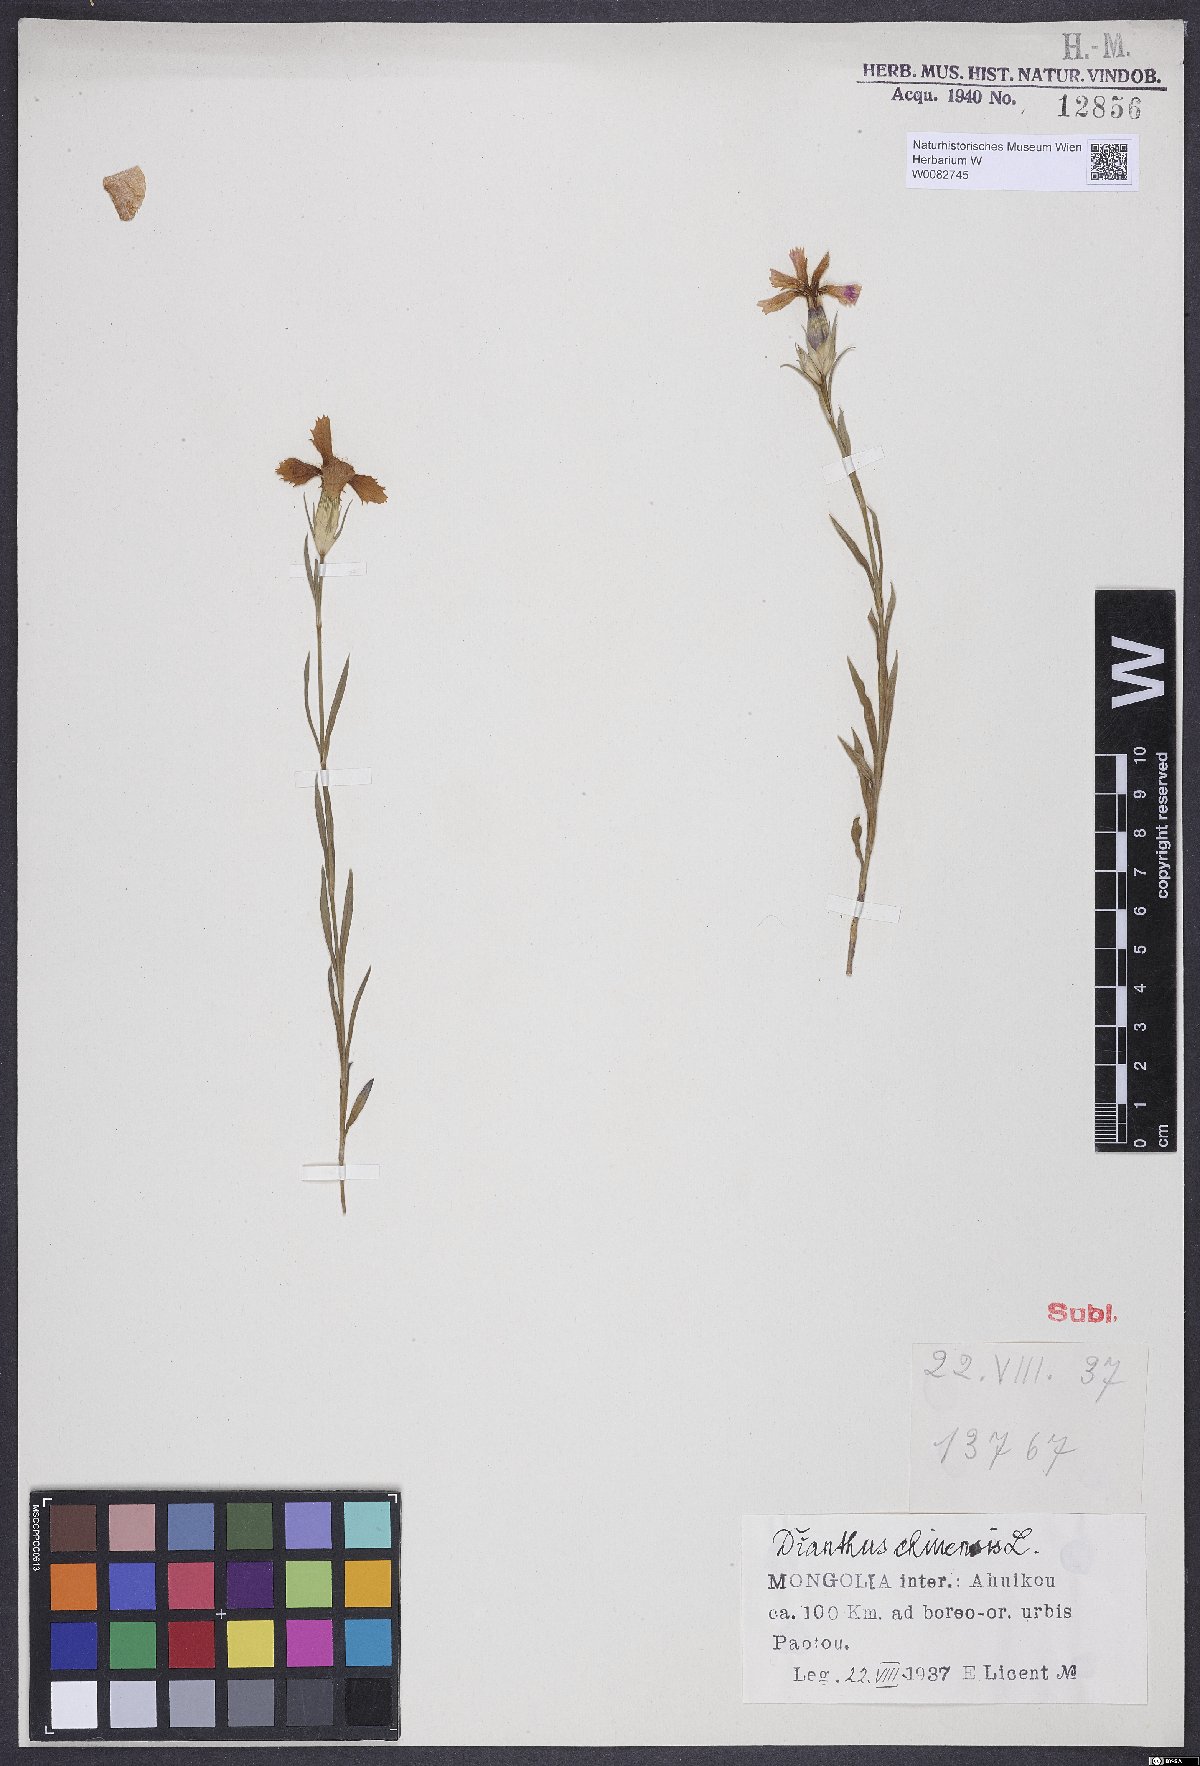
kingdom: Plantae
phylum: Tracheophyta
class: Magnoliopsida
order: Caryophyllales
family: Caryophyllaceae
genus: Dianthus
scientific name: Dianthus chinensis
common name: Rainbow pink
